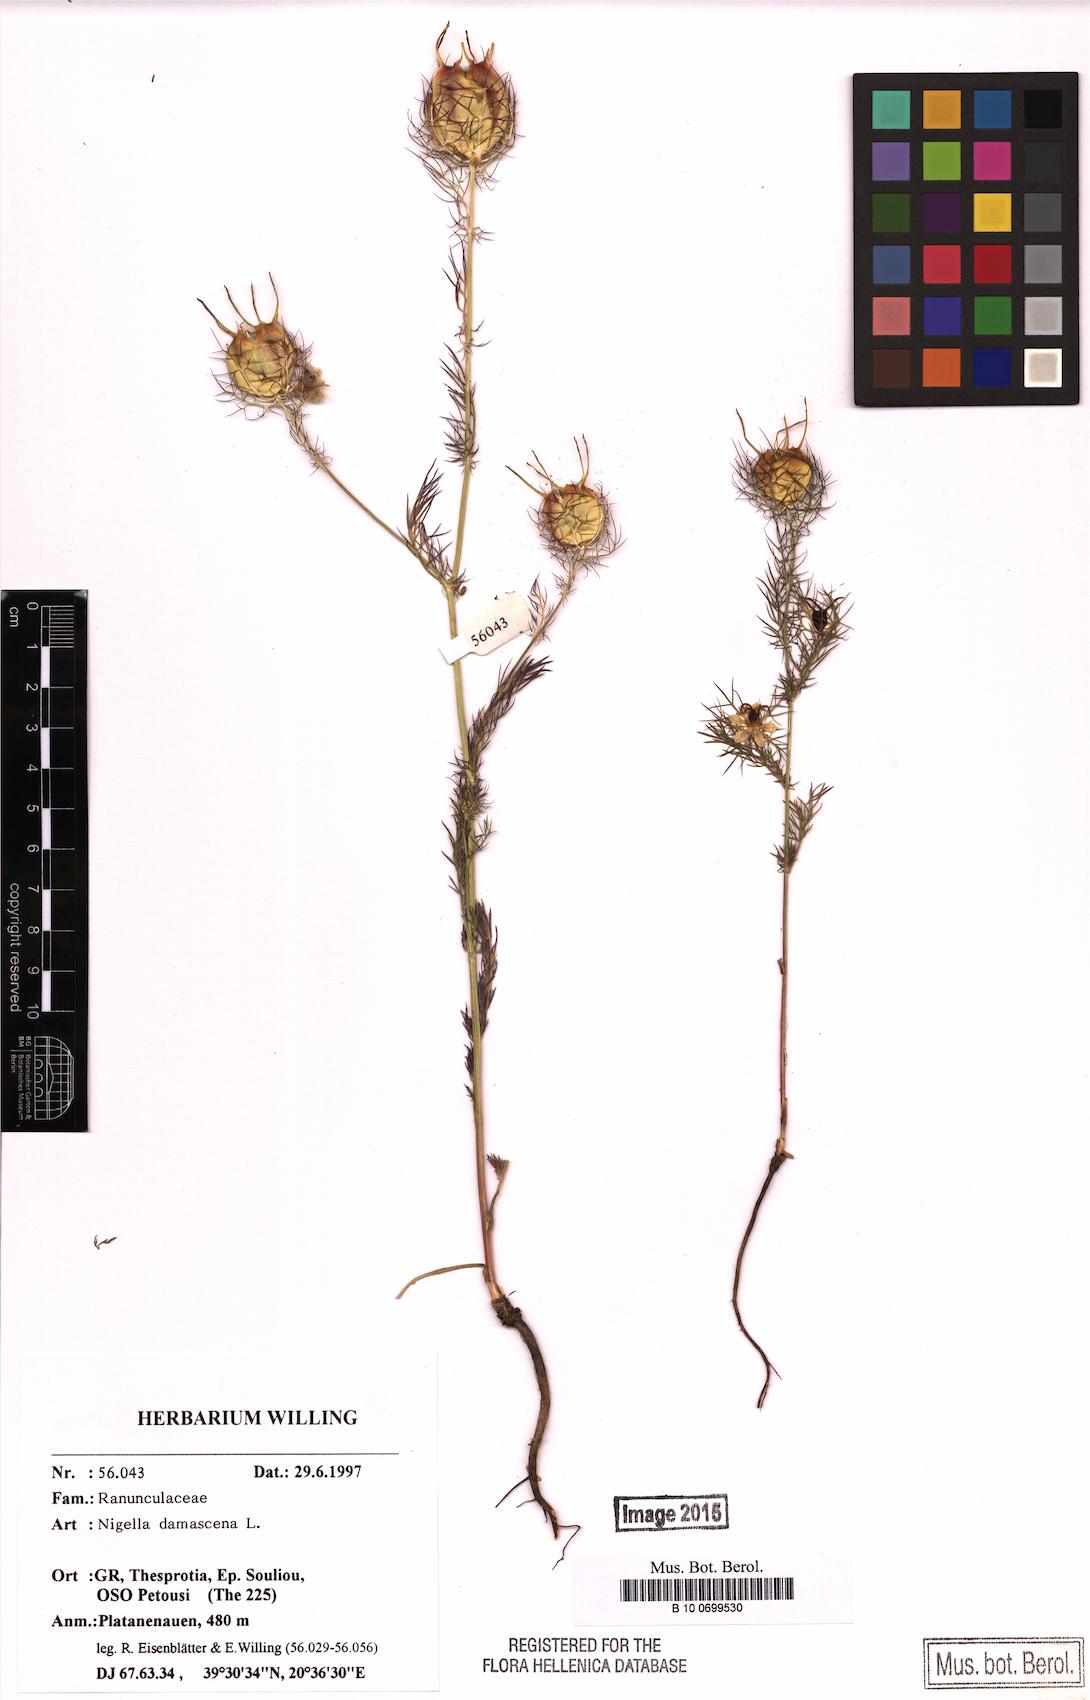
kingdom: Plantae
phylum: Tracheophyta
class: Magnoliopsida
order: Ranunculales
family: Ranunculaceae
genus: Nigella
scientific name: Nigella damascena
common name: Love-in-a-mist
